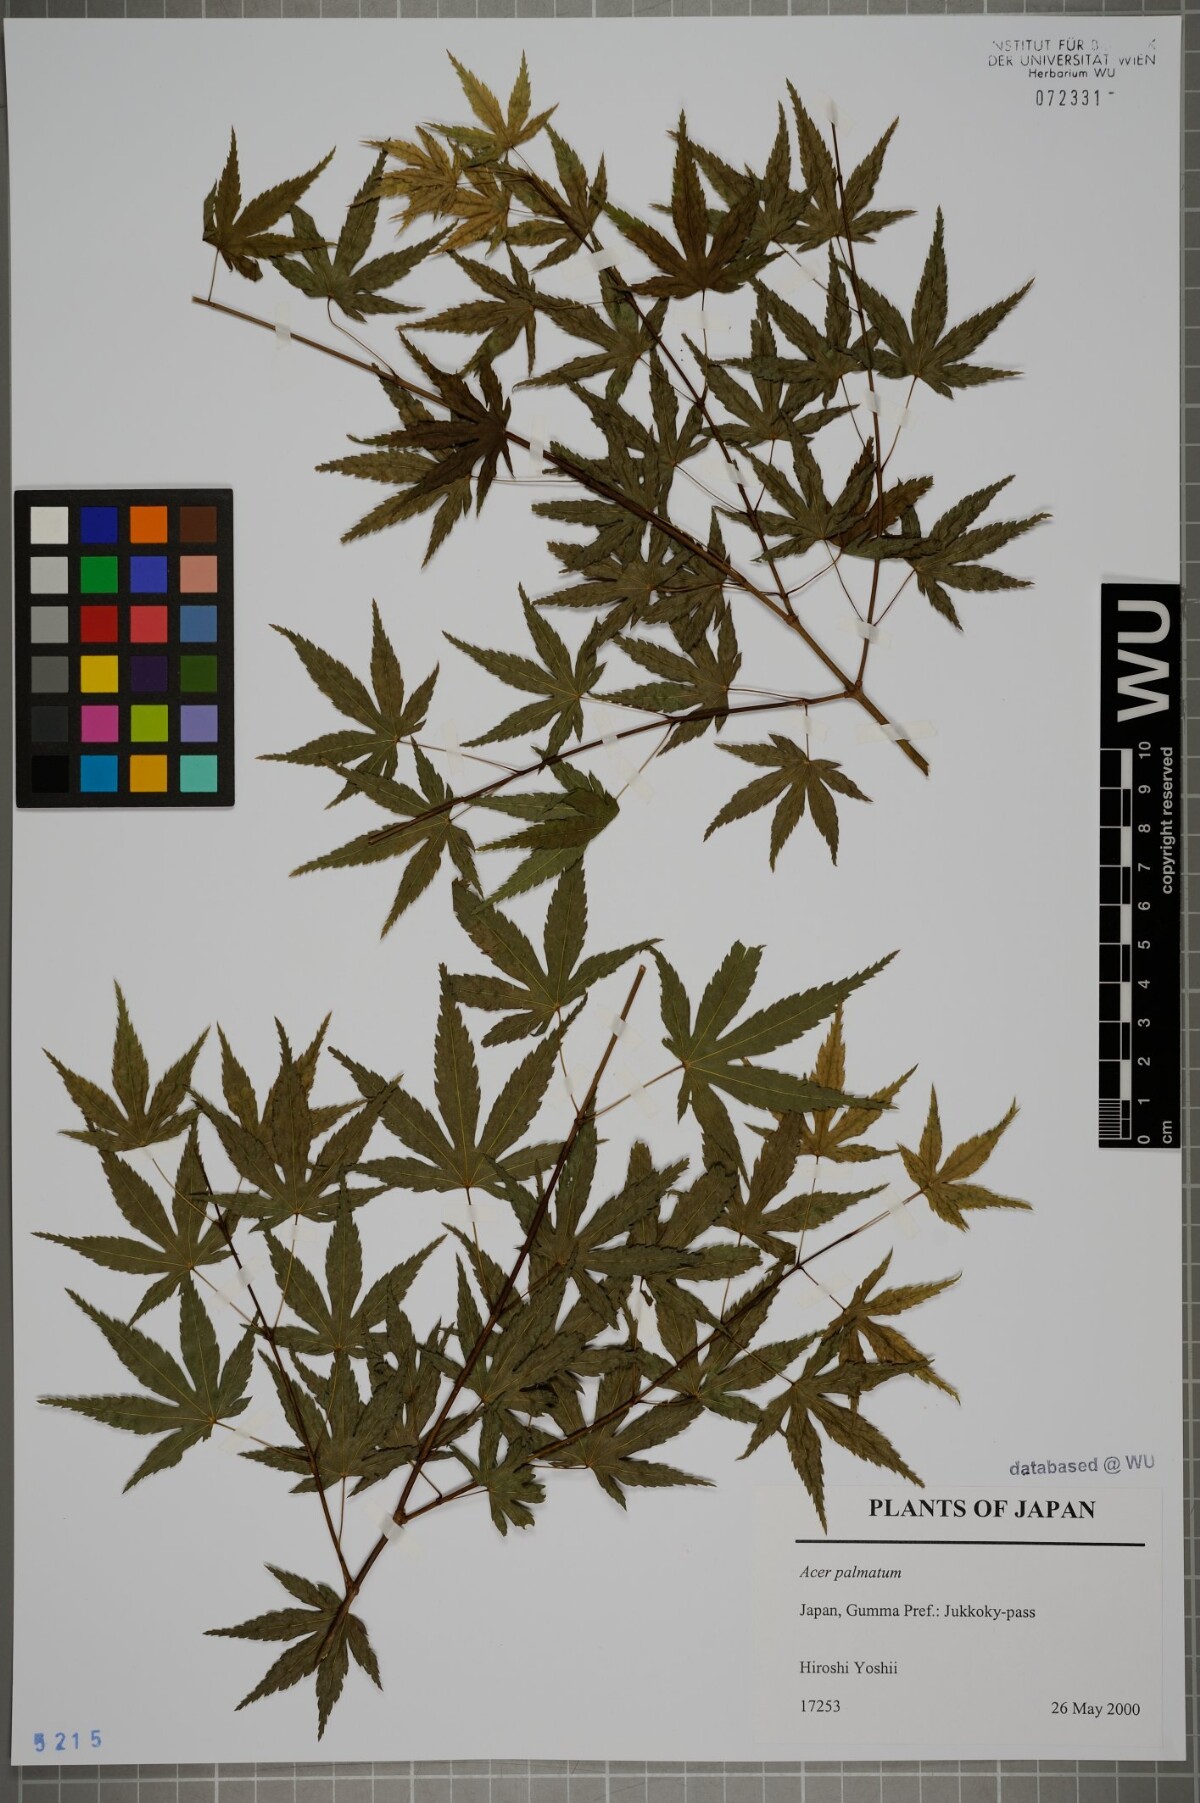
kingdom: Plantae
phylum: Tracheophyta
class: Magnoliopsida
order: Sapindales
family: Sapindaceae
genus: Acer
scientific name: Acer palmatum
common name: Japanese maple
